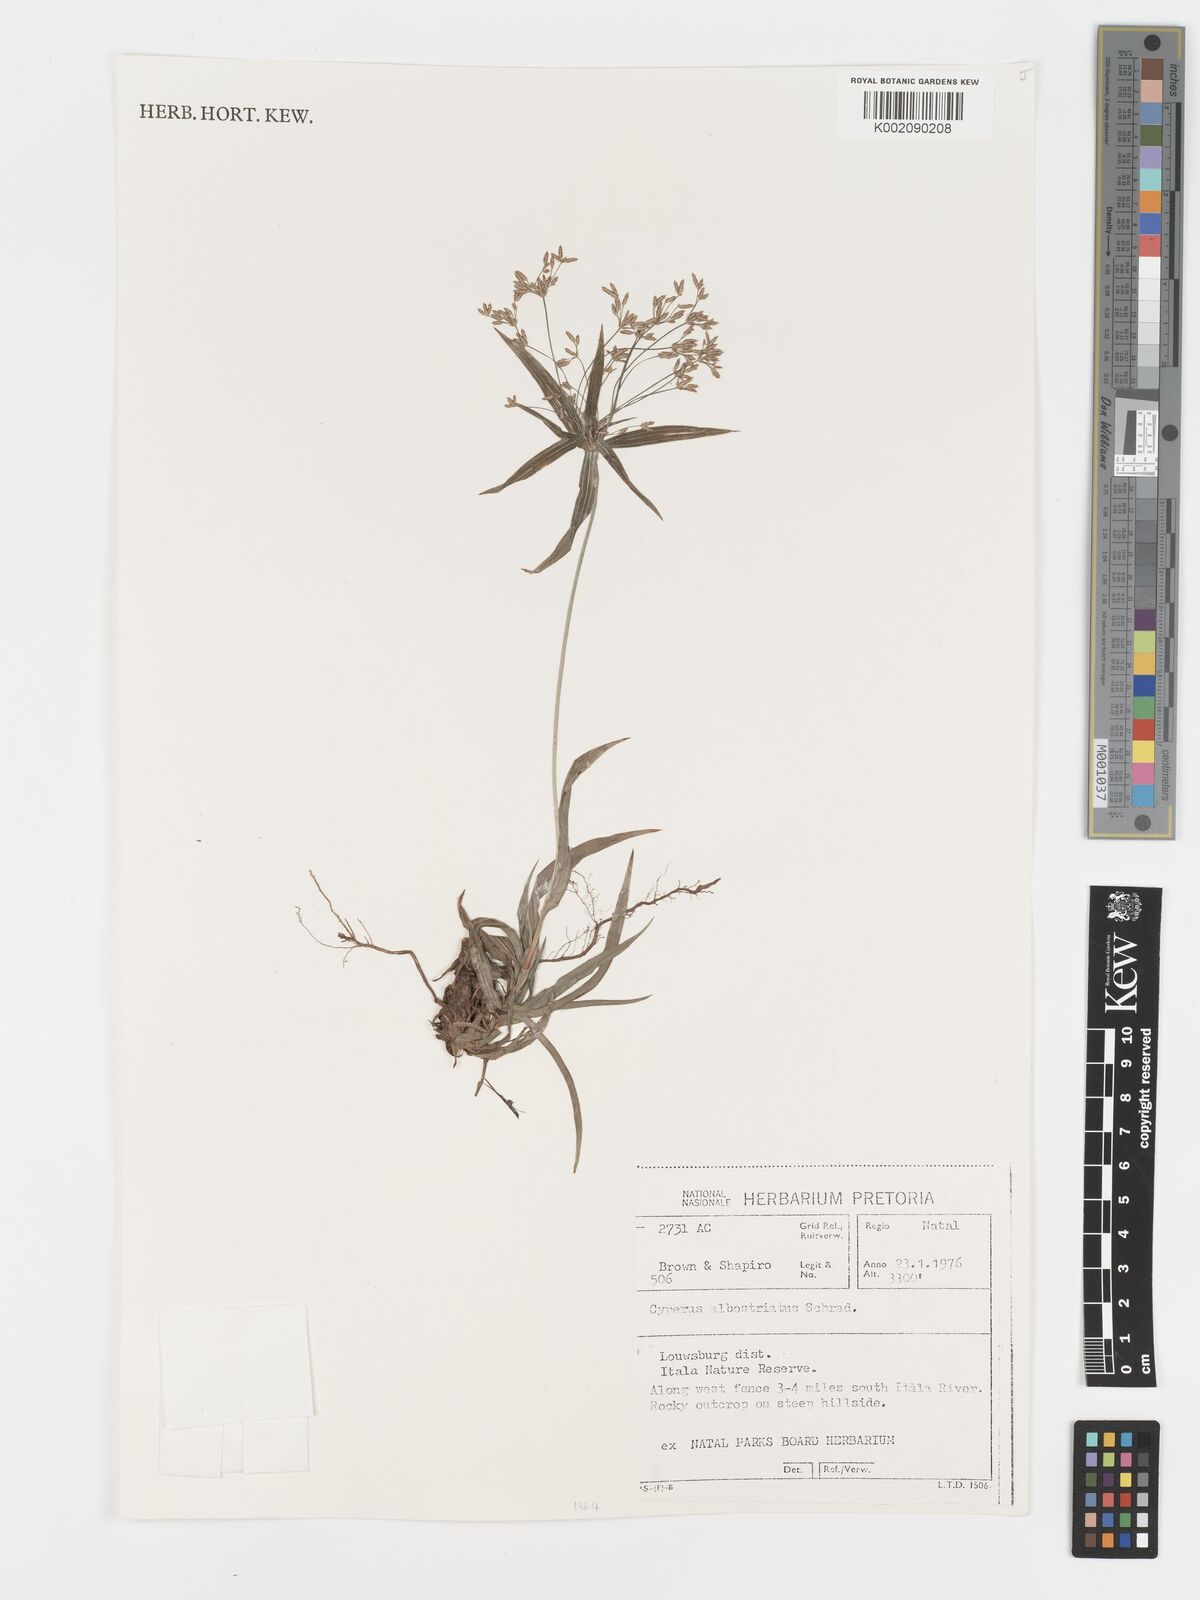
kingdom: Plantae
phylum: Tracheophyta
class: Liliopsida
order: Poales
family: Cyperaceae
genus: Cyperus
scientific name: Cyperus albostriatus
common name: Dwarf umbrella-grass
